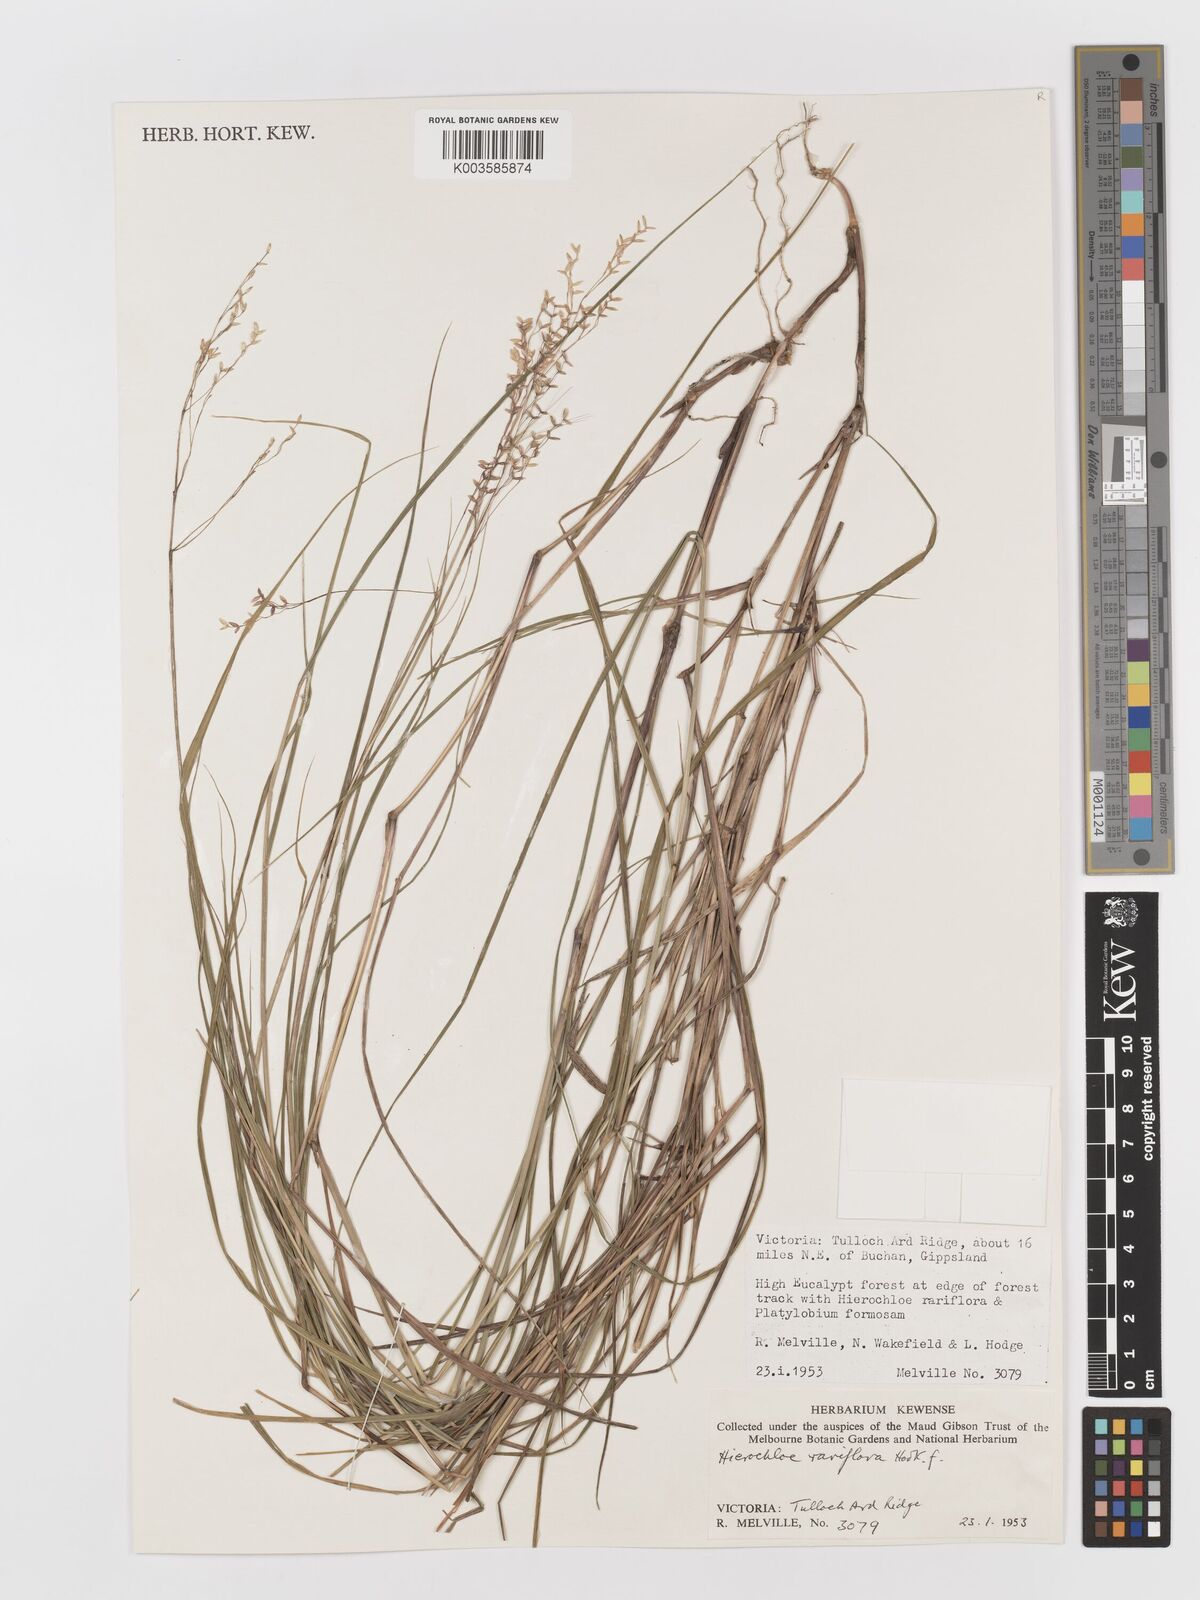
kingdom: Plantae
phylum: Tracheophyta
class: Liliopsida
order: Poales
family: Poaceae
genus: Anthoxanthum
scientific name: Anthoxanthum rariflorum
